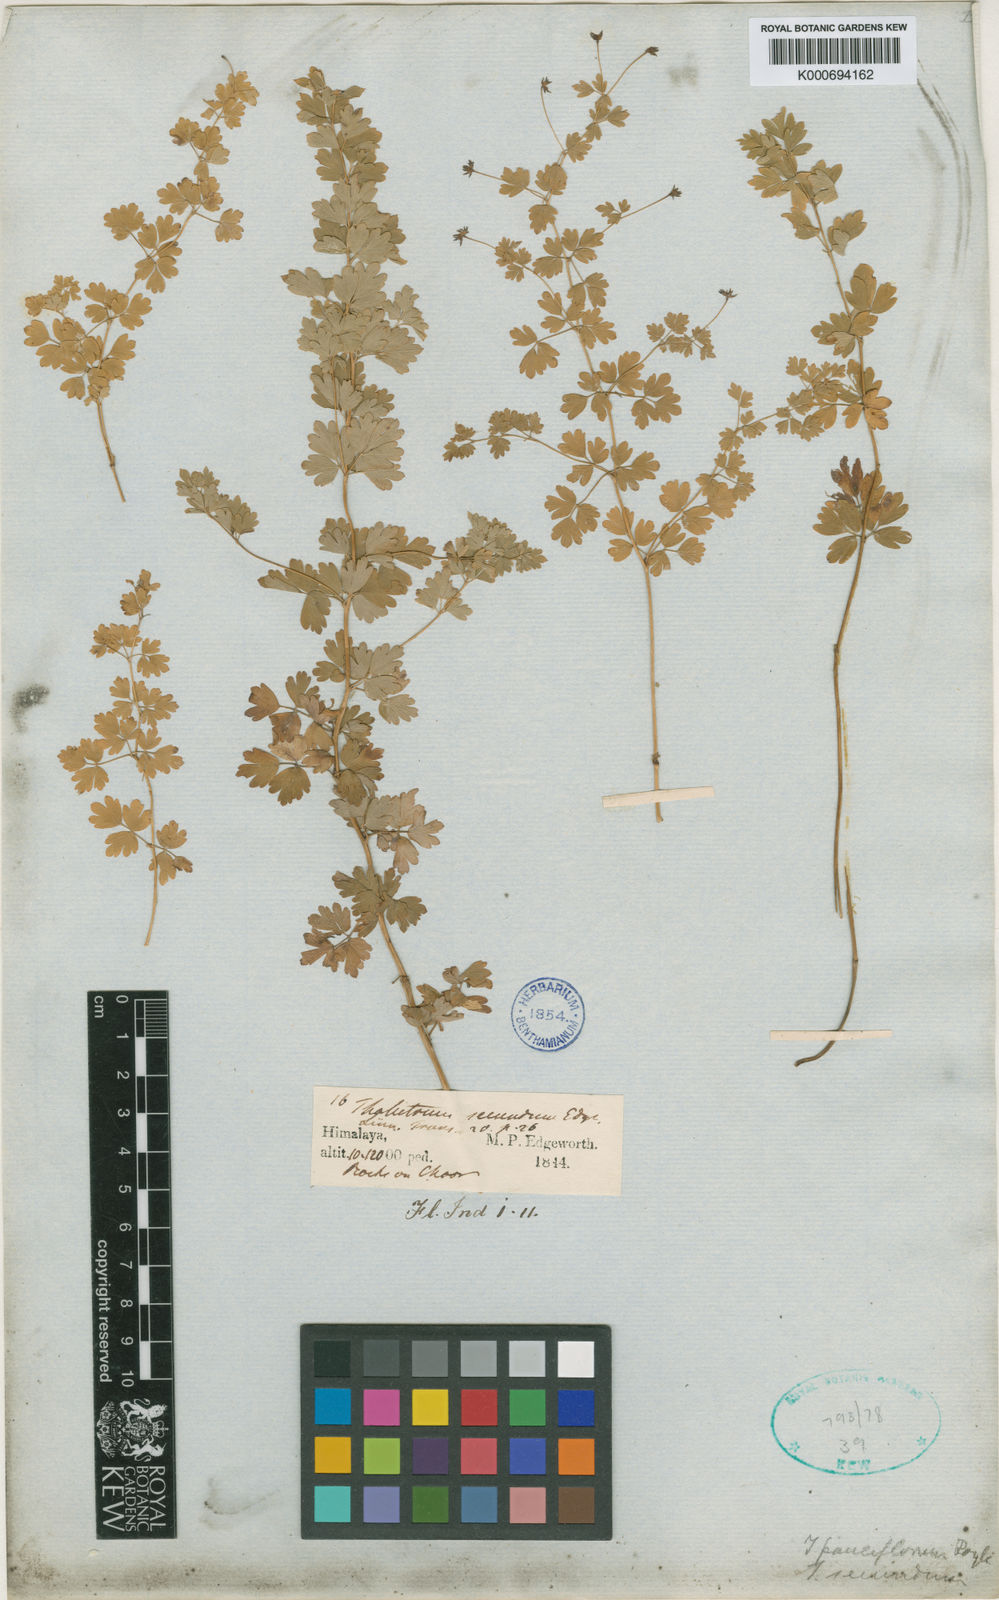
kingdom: Plantae
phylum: Tracheophyta
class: Magnoliopsida
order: Ranunculales
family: Ranunculaceae
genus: Thalictrum
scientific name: Thalictrum secundum
